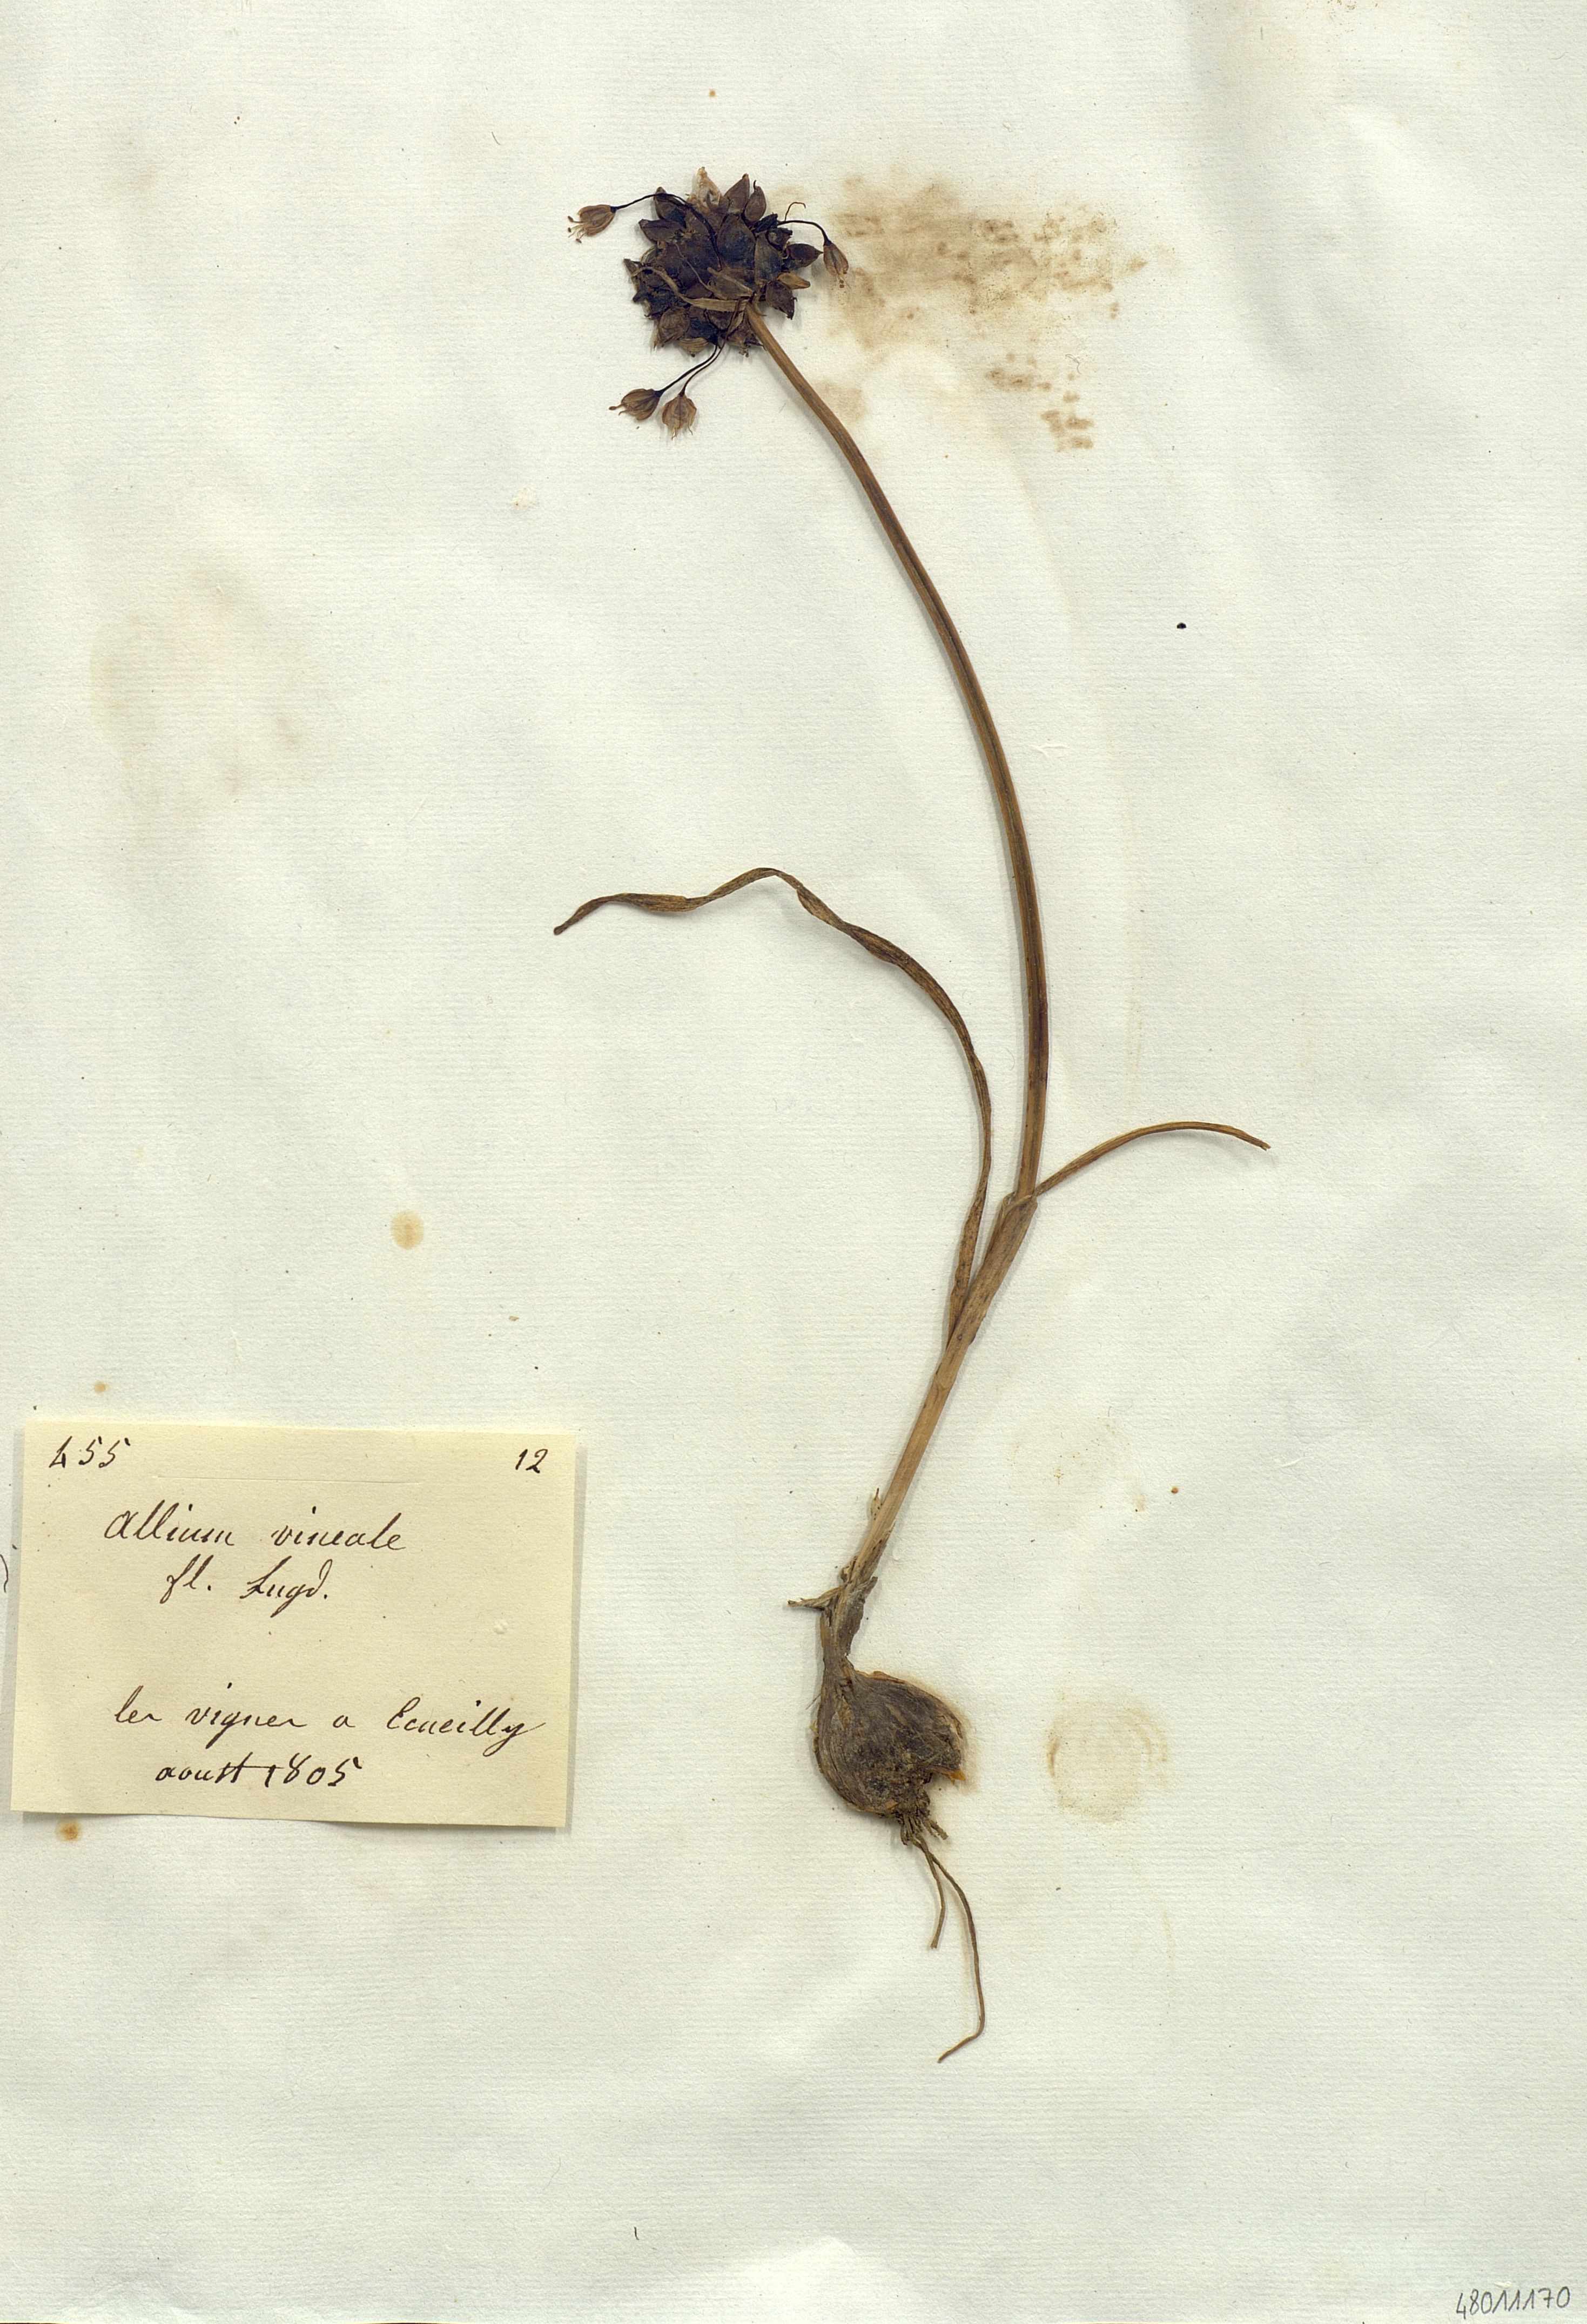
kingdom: Plantae
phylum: Tracheophyta
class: Liliopsida
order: Liliales
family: Liliaceae
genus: Allium
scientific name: Allium
